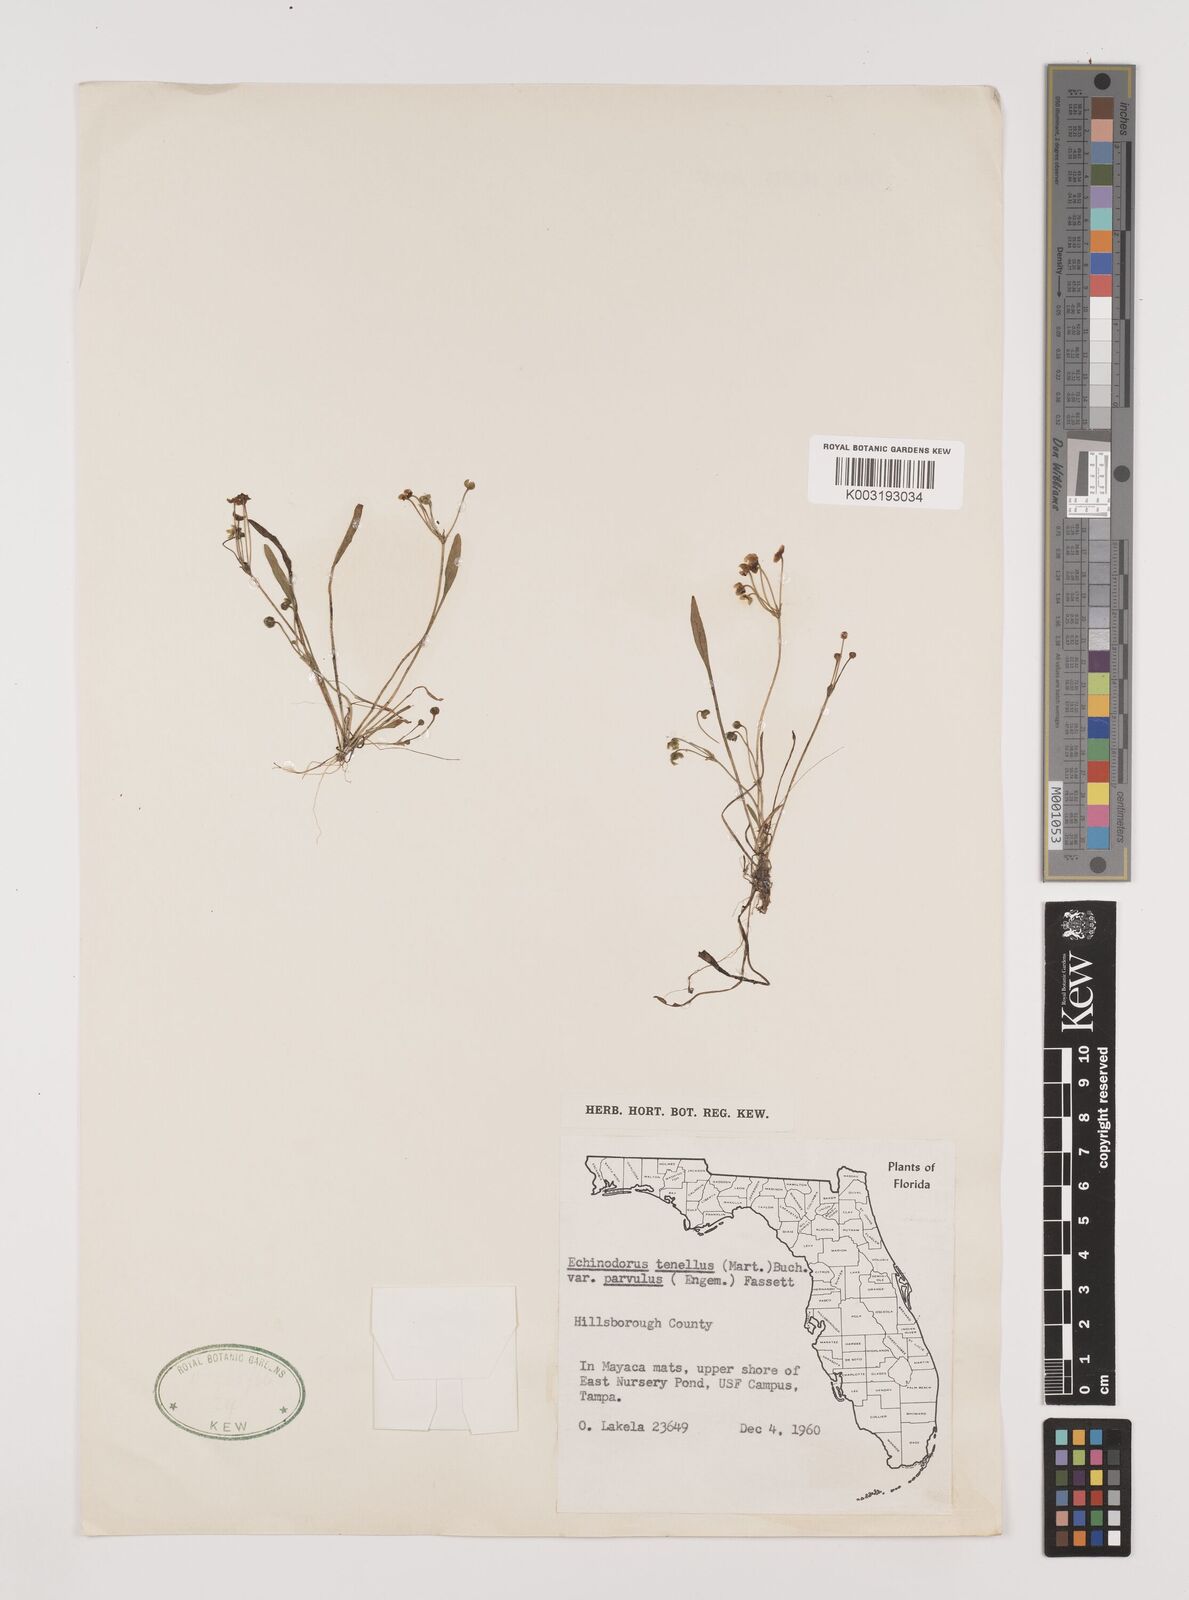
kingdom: Plantae
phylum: Tracheophyta
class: Liliopsida
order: Alismatales
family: Alismataceae
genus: Helanthium
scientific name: Helanthium tenellum
